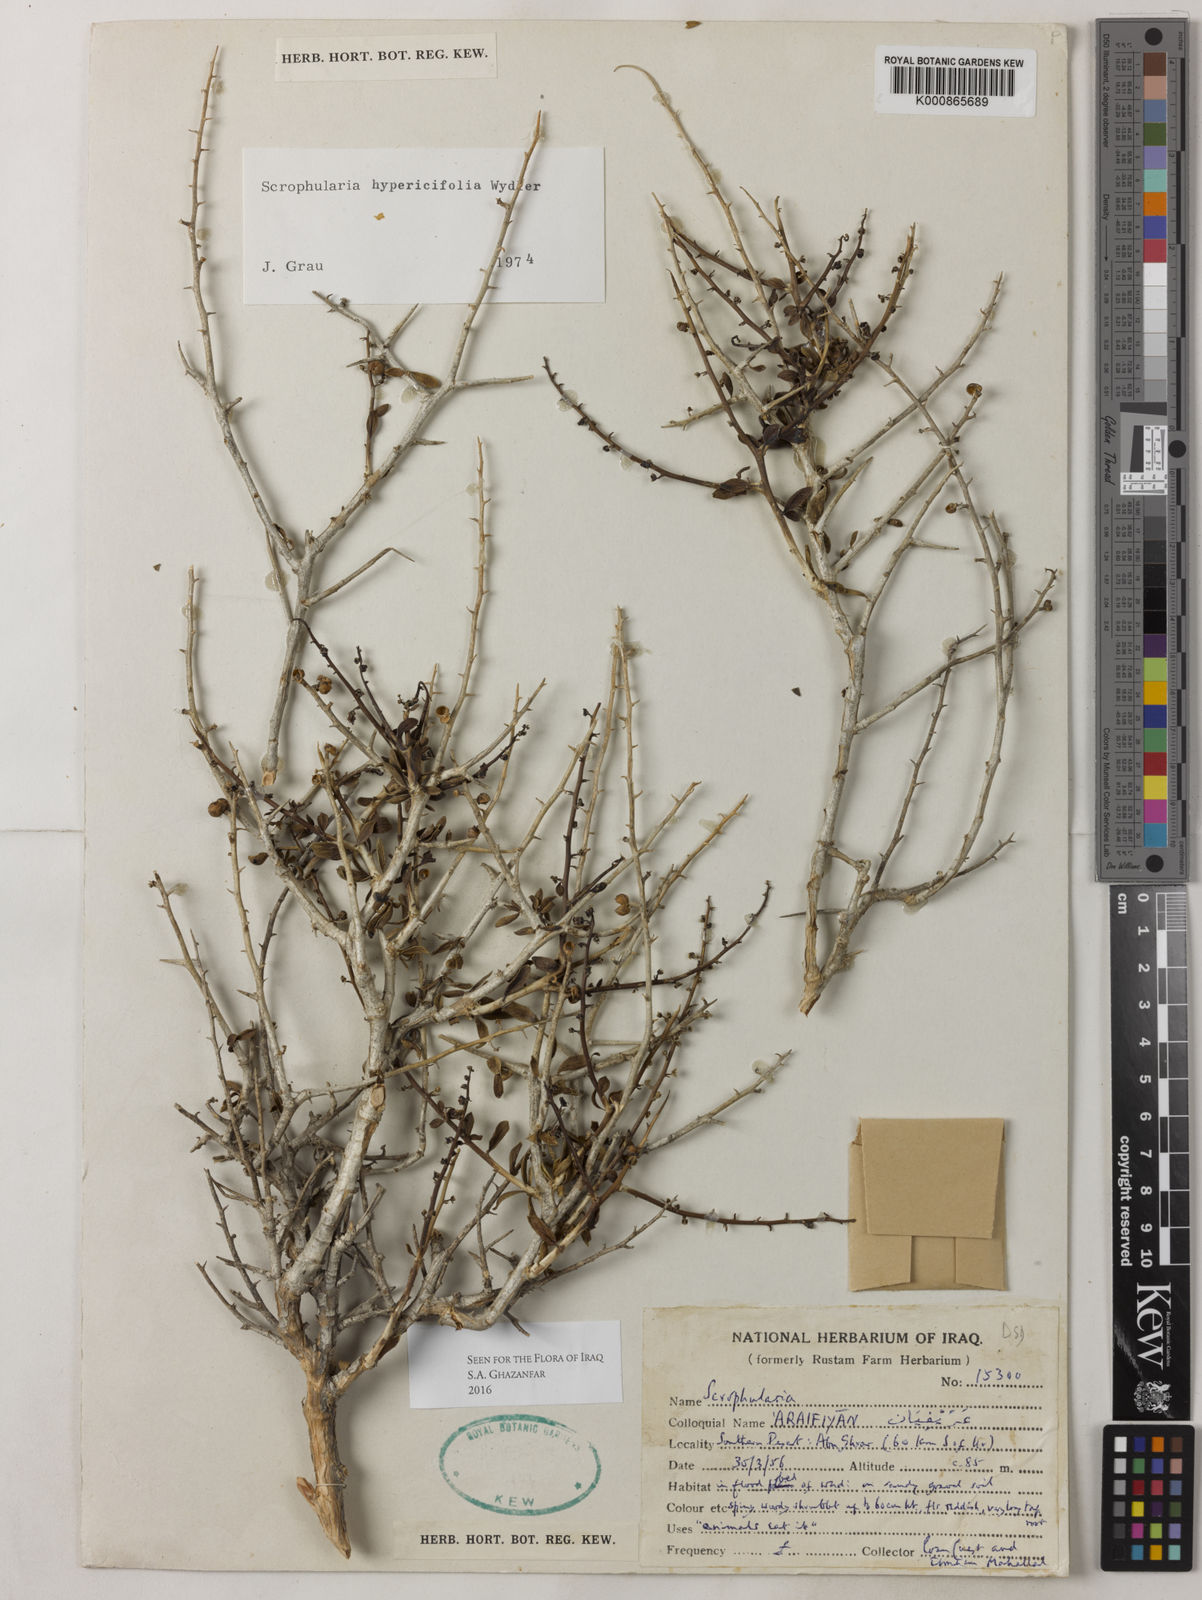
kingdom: Plantae
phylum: Tracheophyta
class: Magnoliopsida
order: Lamiales
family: Scrophulariaceae
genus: Scrophularia
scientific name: Scrophularia hypericifolia
